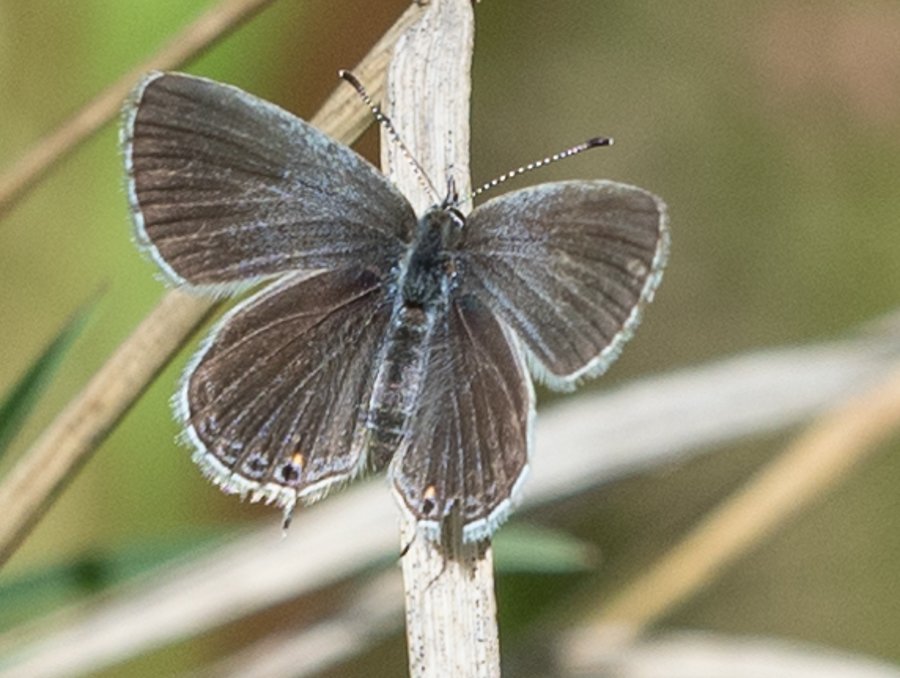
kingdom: Animalia
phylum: Arthropoda
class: Insecta
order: Lepidoptera
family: Lycaenidae
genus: Elkalyce
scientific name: Elkalyce amyntula
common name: Western Tailed-Blue
